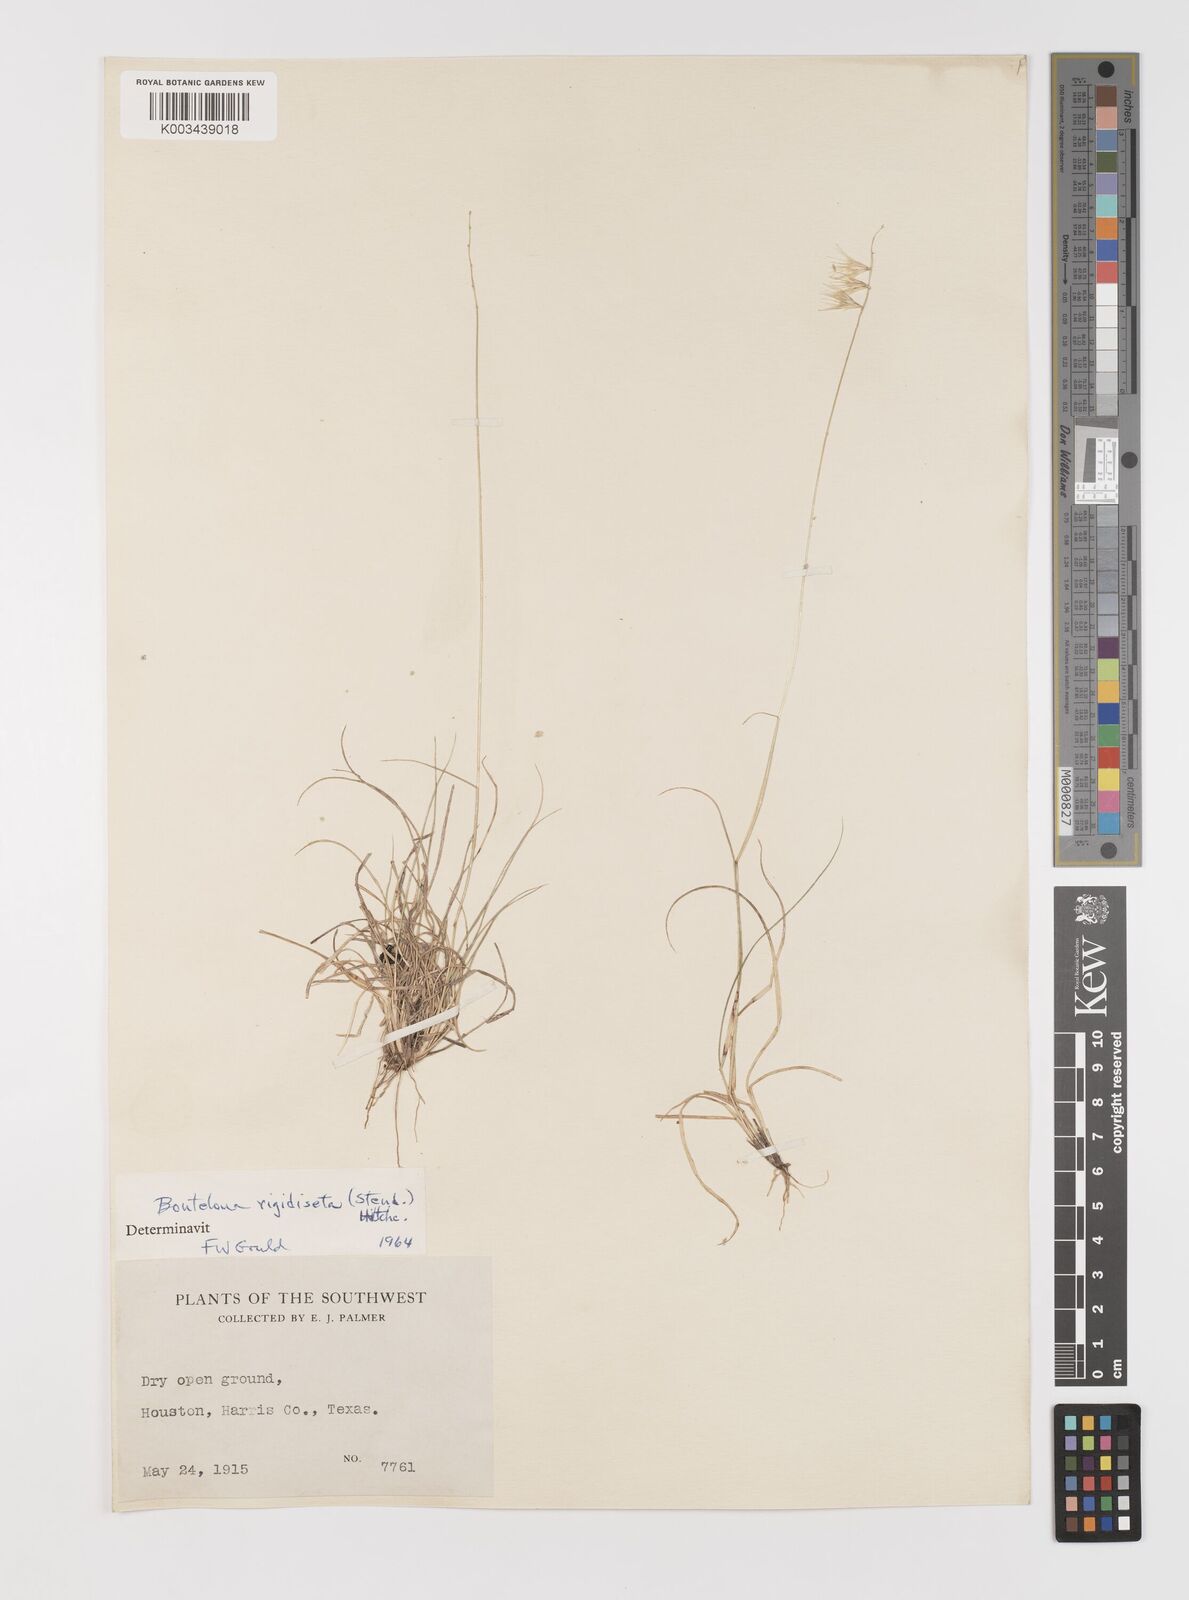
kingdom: Plantae
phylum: Tracheophyta
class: Liliopsida
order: Poales
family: Poaceae
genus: Bouteloua
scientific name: Bouteloua rigidiseta
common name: Texas grama
